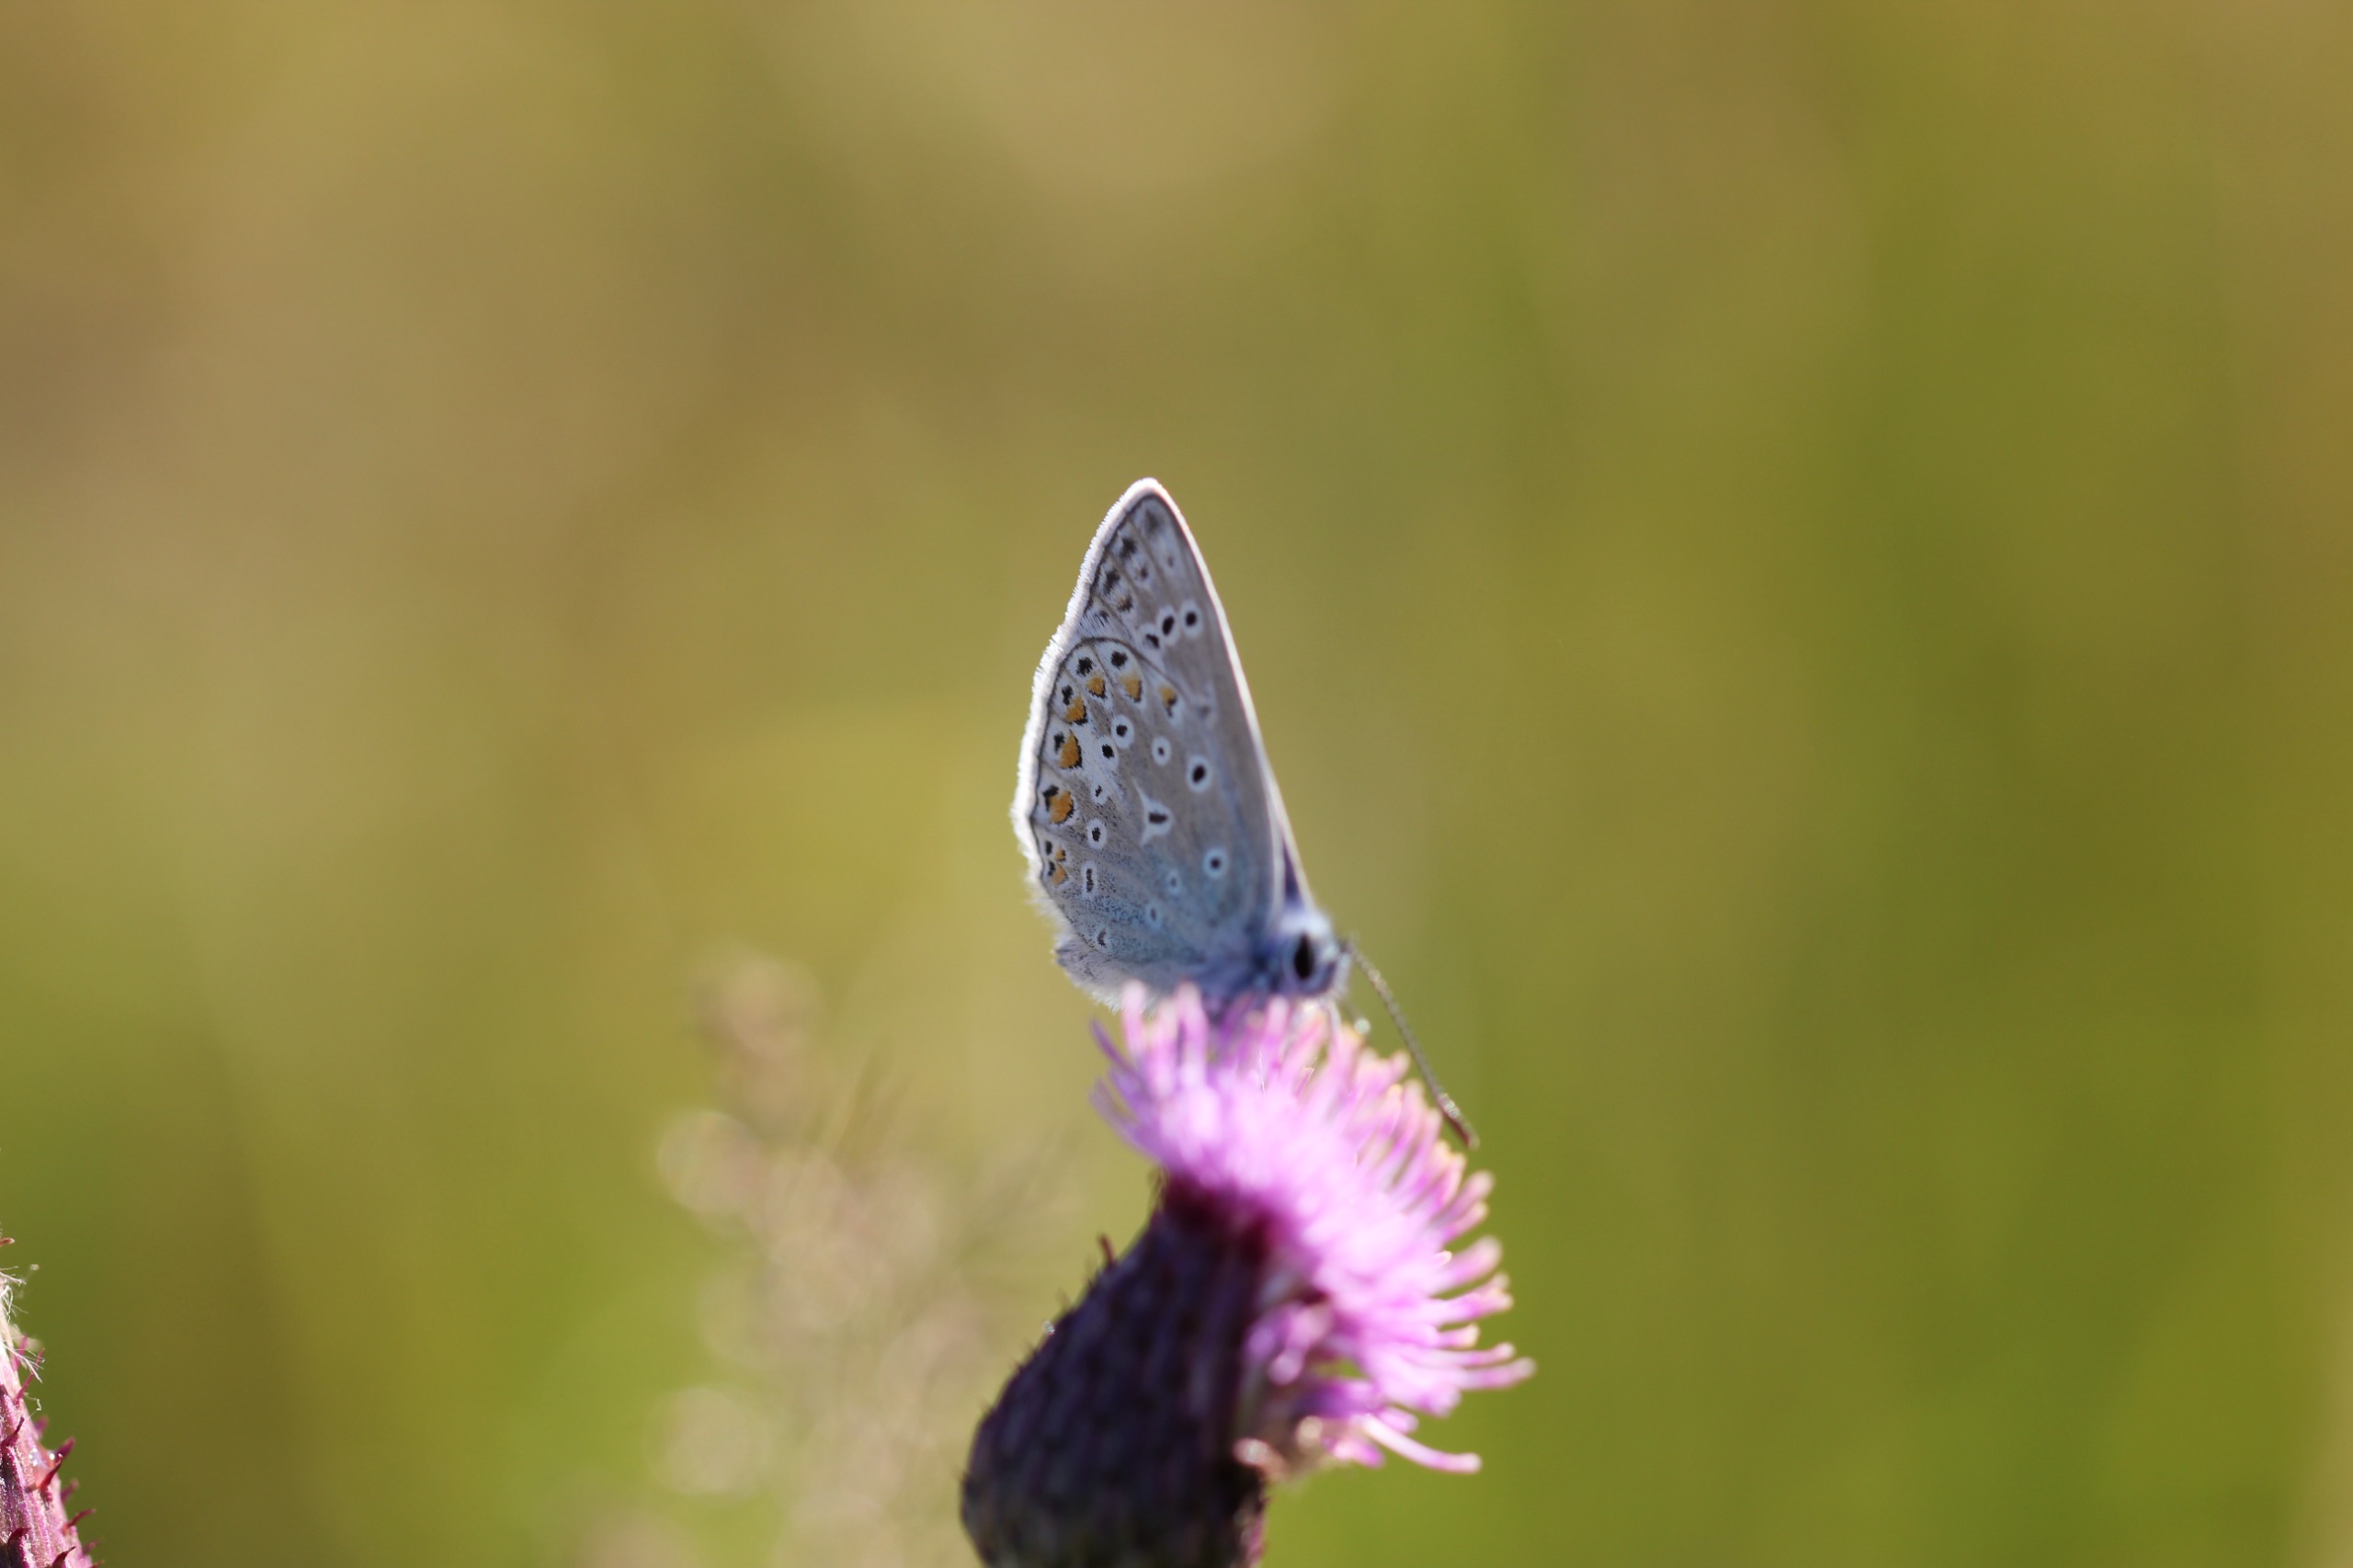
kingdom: Animalia
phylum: Arthropoda
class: Insecta
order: Lepidoptera
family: Lycaenidae
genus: Polyommatus
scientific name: Polyommatus icarus
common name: Almindelig blåfugl
